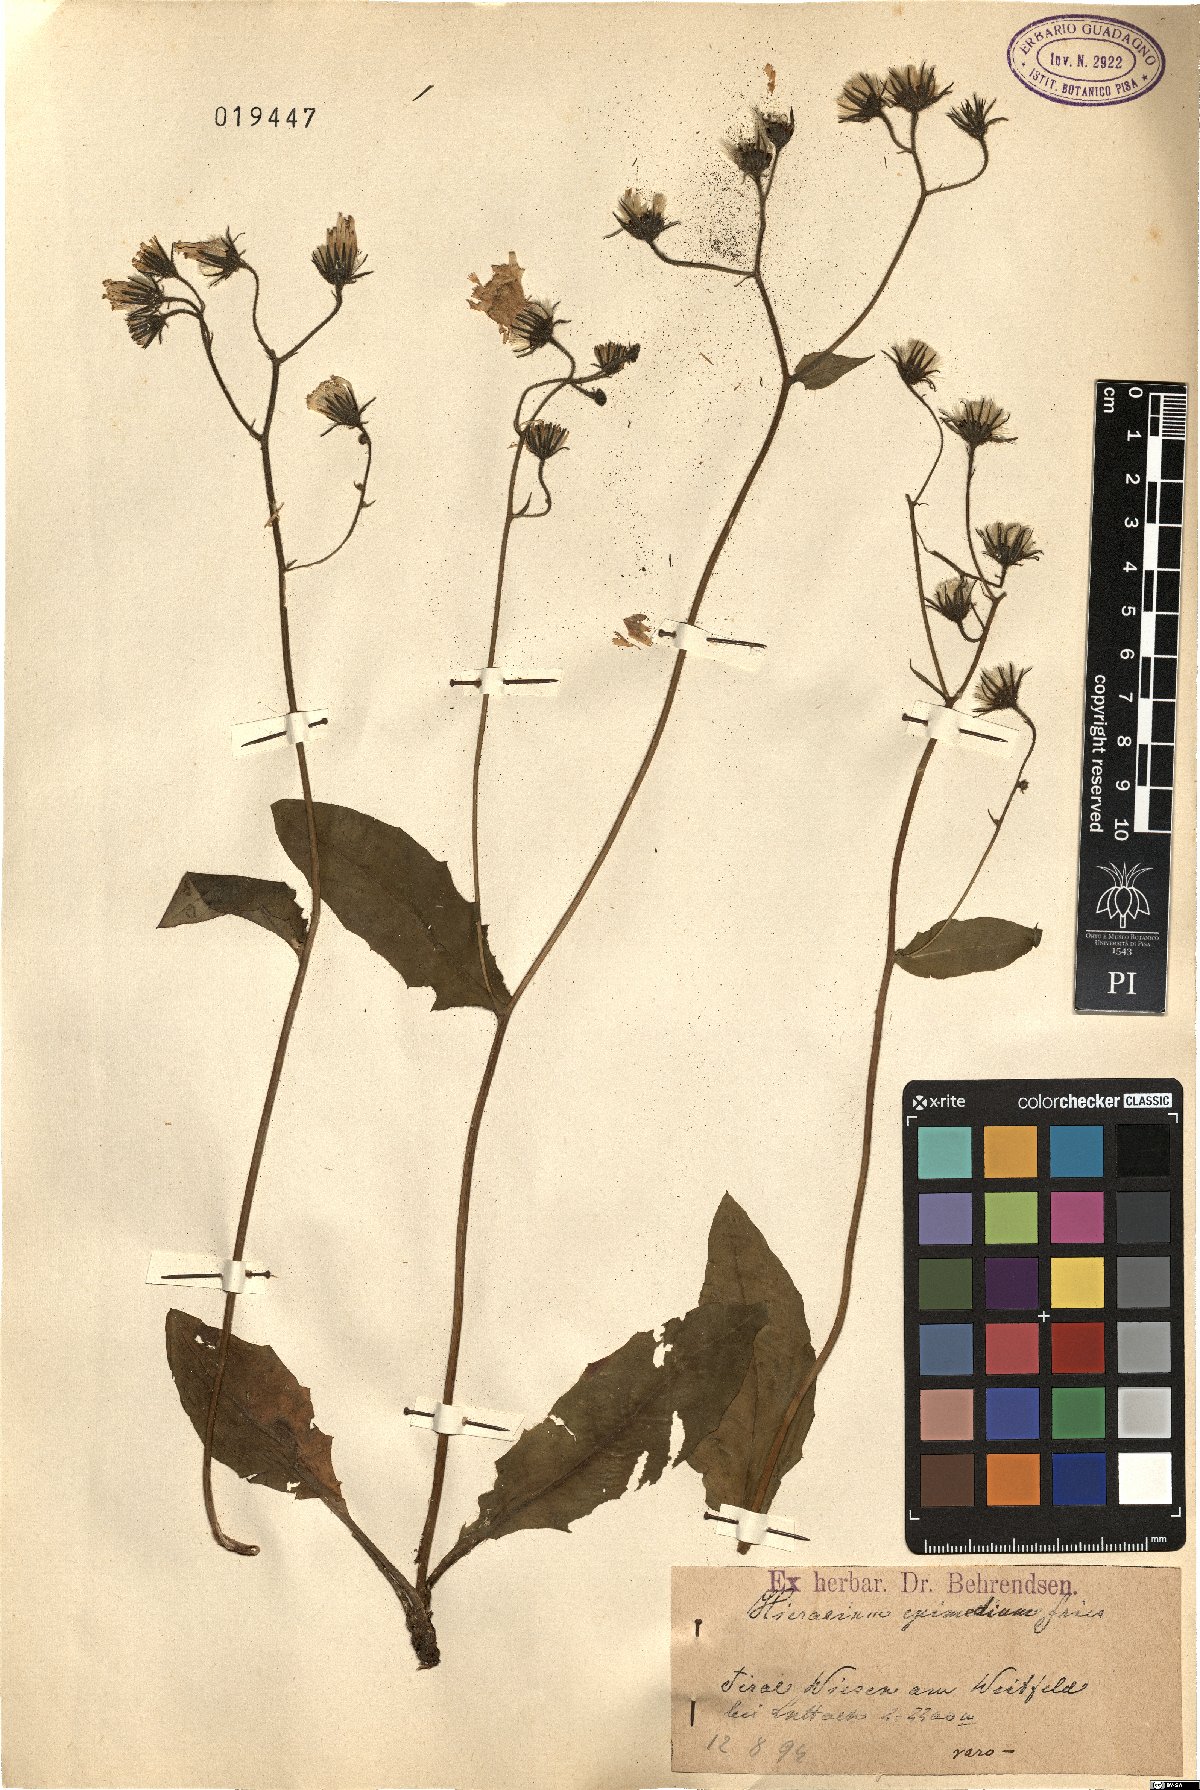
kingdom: Plantae
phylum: Tracheophyta
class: Magnoliopsida
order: Asterales
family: Asteraceae
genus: Hieracium
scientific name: Hieracium froelichianum
